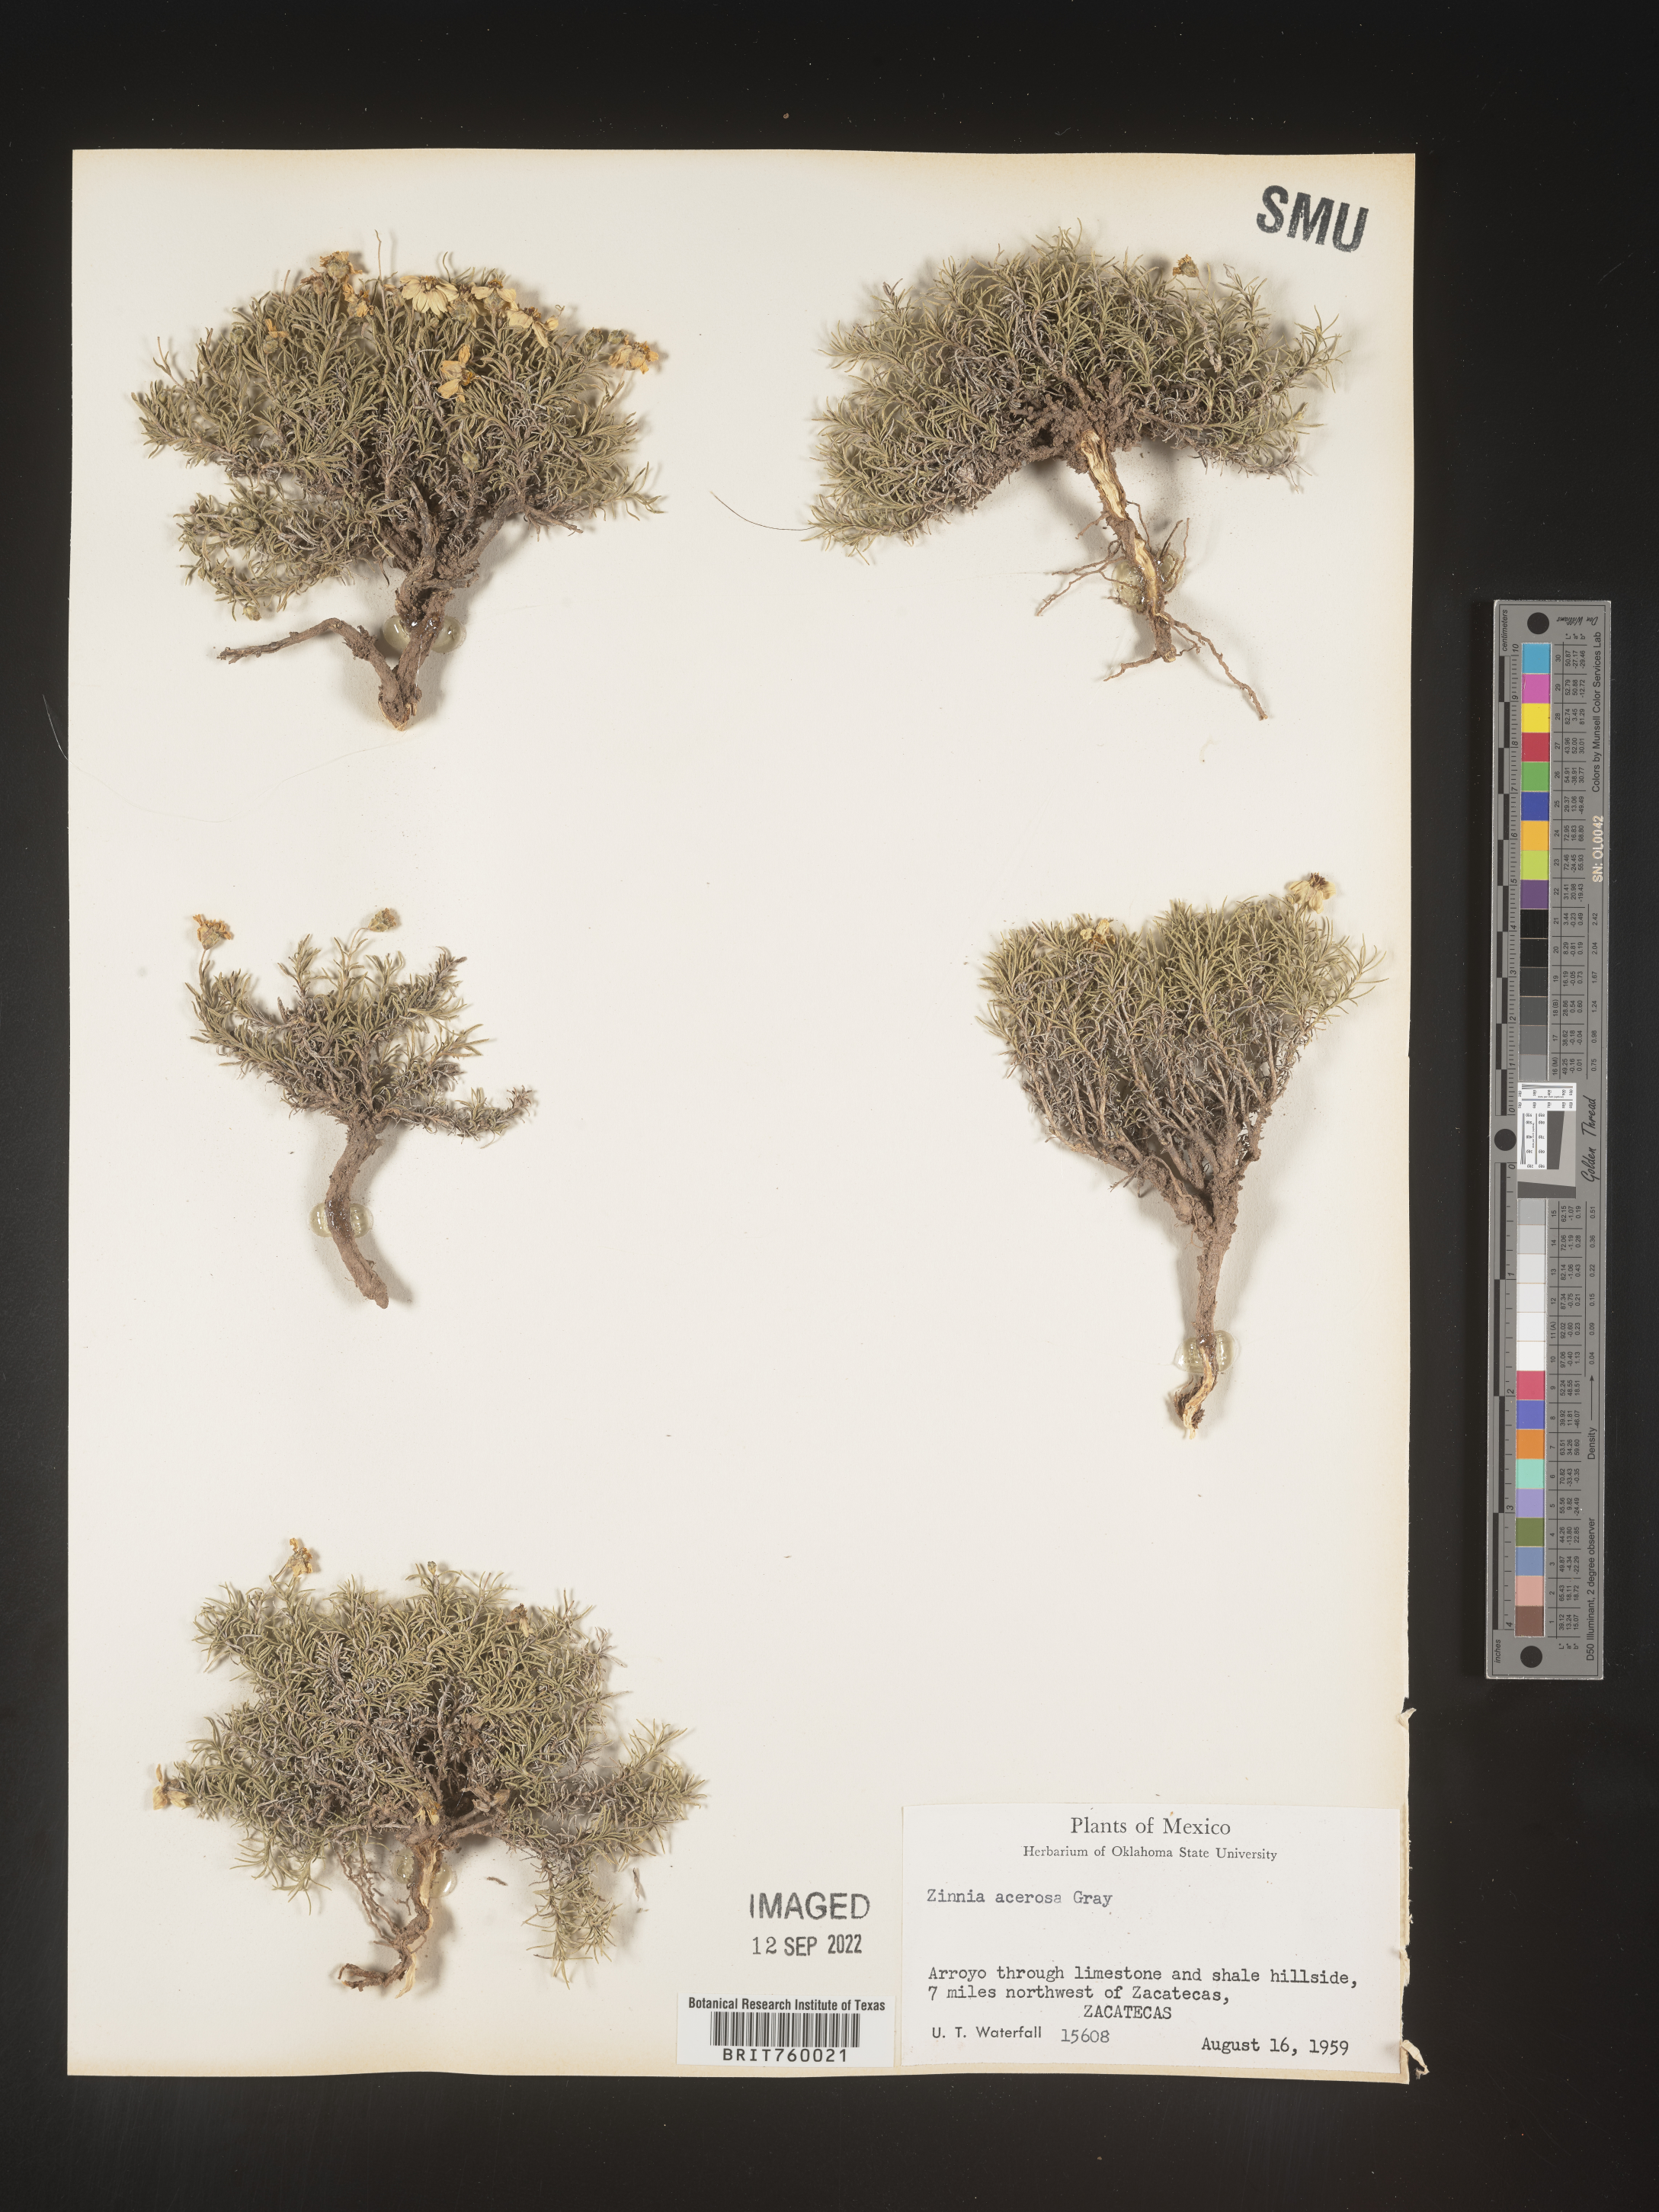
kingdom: Plantae
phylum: Tracheophyta
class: Magnoliopsida
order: Asterales
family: Asteraceae
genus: Zinnia
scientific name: Zinnia
